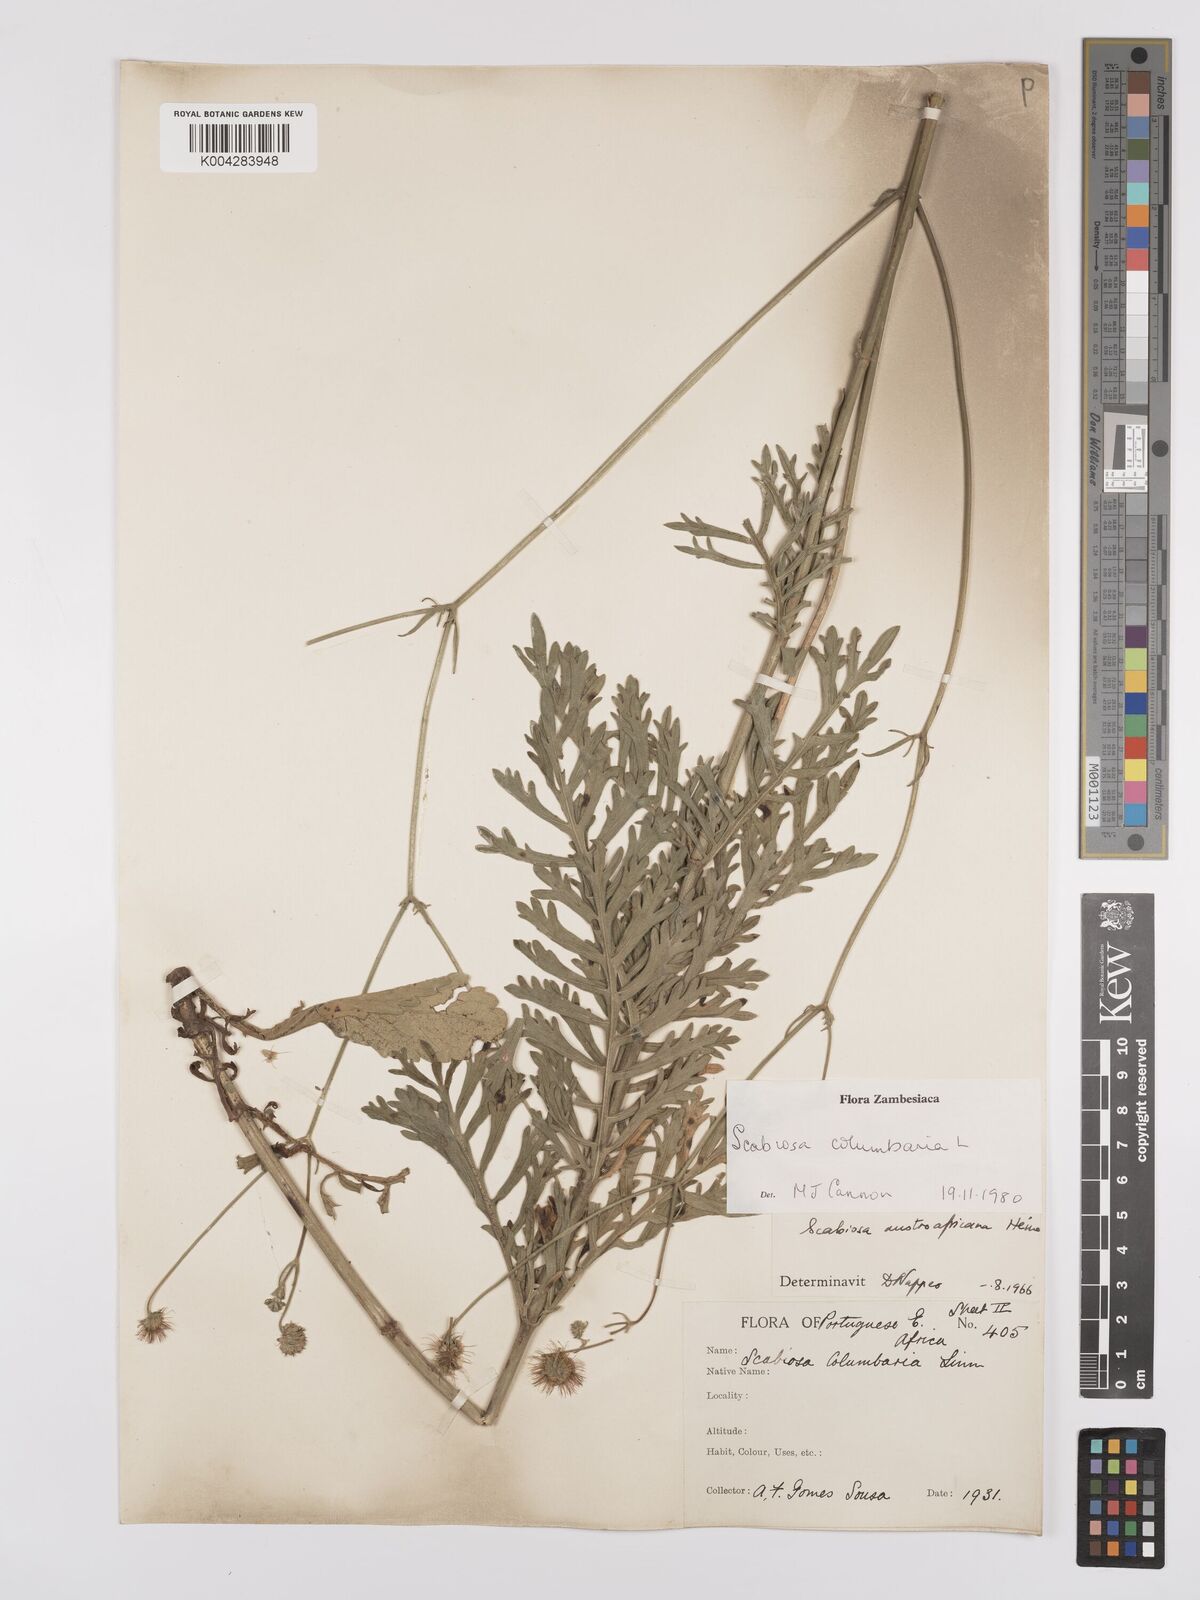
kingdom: Plantae
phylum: Tracheophyta
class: Magnoliopsida
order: Dipsacales
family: Caprifoliaceae
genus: Scabiosa
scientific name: Scabiosa austroafricana
